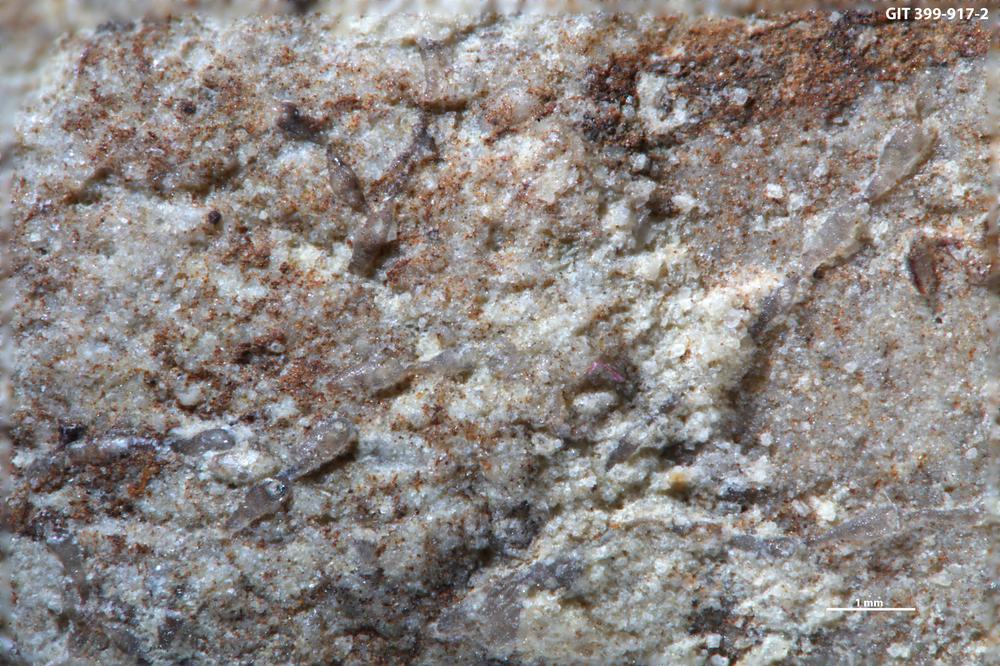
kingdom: Animalia
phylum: Bryozoa
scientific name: Bryozoa
